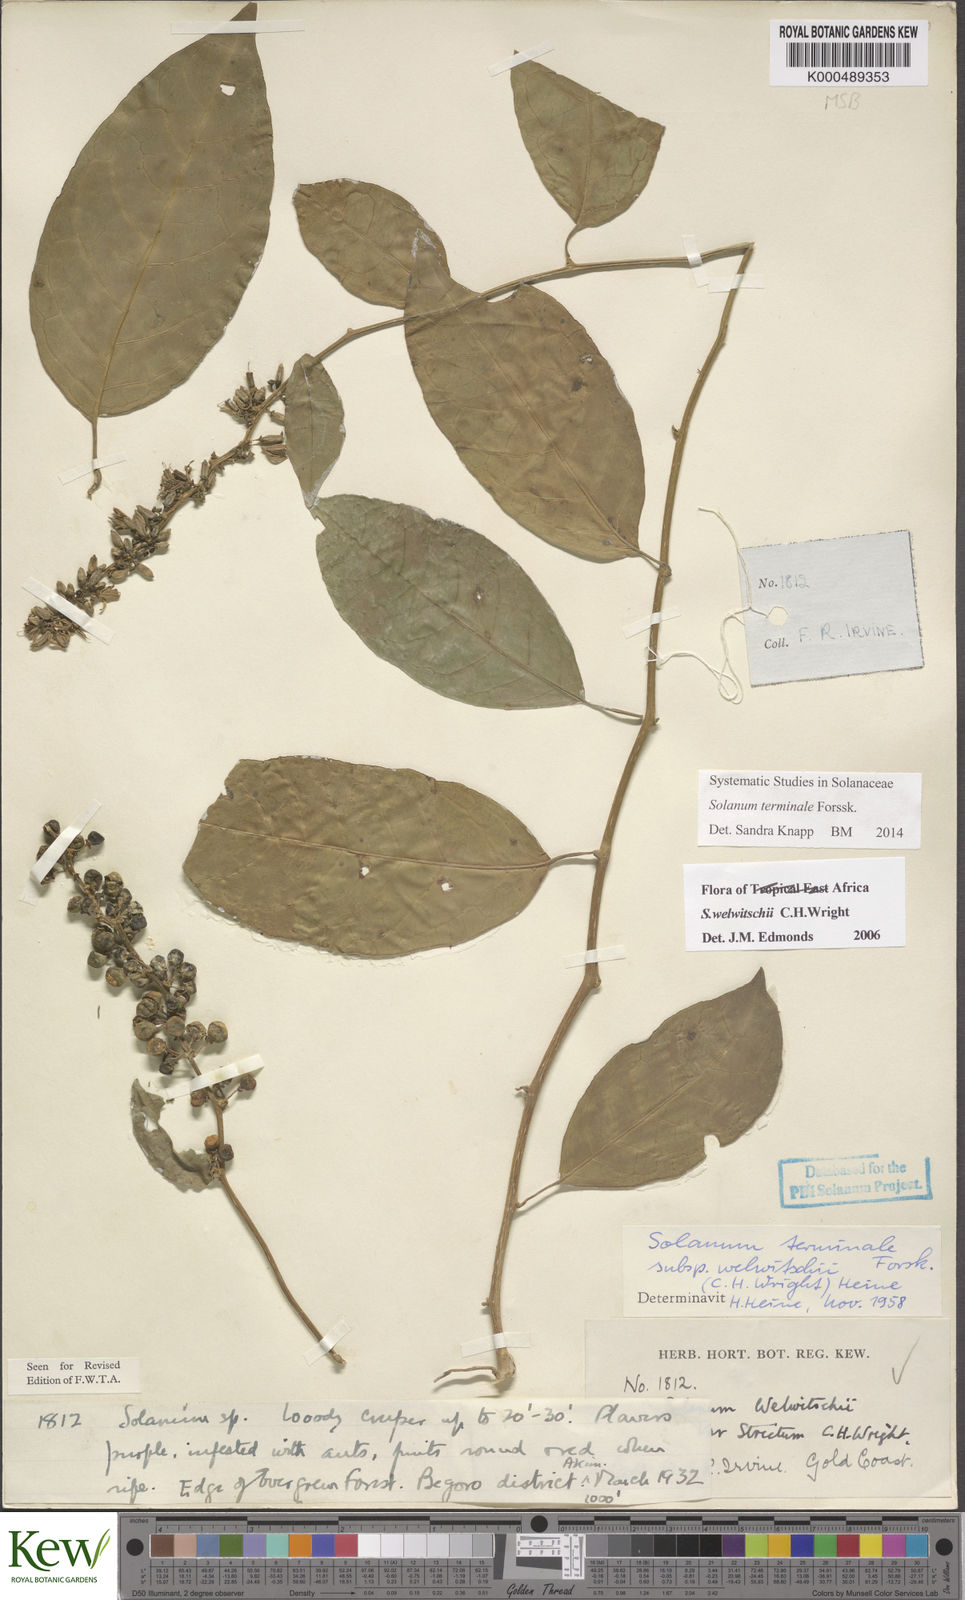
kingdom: Plantae
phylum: Tracheophyta
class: Magnoliopsida
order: Solanales
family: Solanaceae
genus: Solanum
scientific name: Solanum terminale
